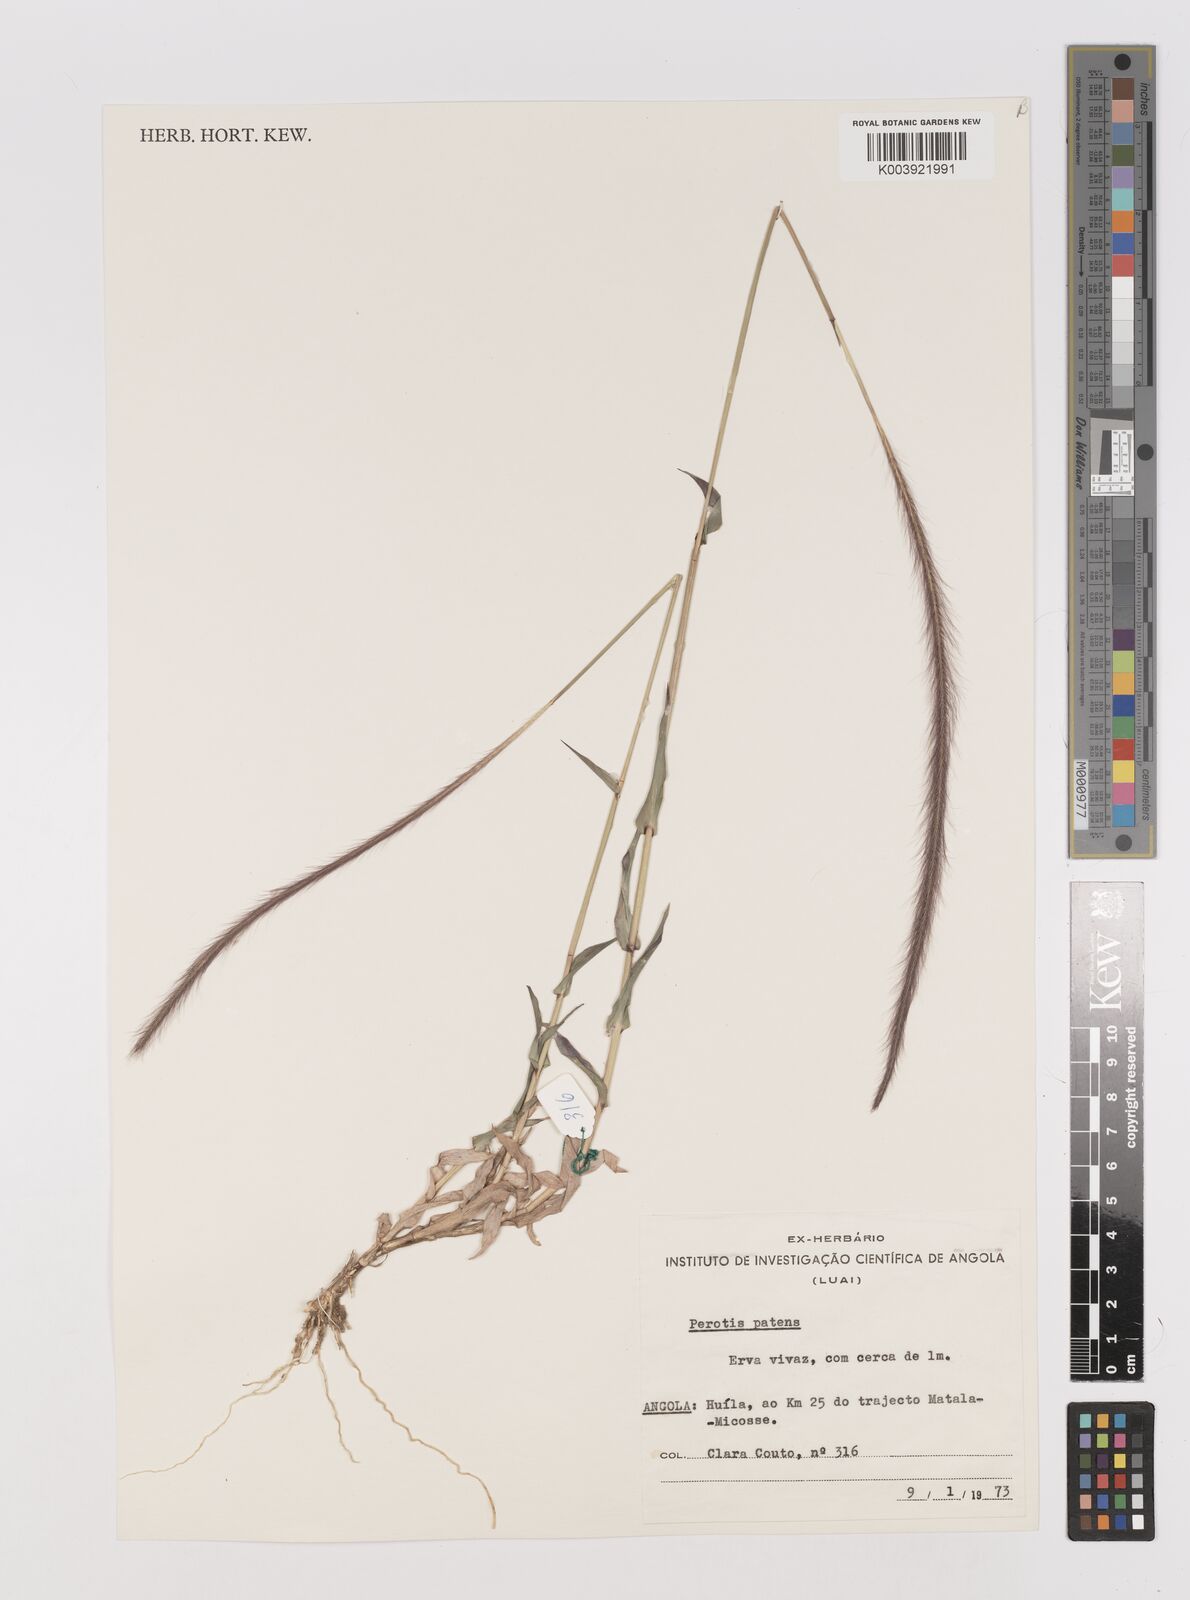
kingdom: Plantae
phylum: Tracheophyta
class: Liliopsida
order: Poales
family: Poaceae
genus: Perotis
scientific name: Perotis patens
